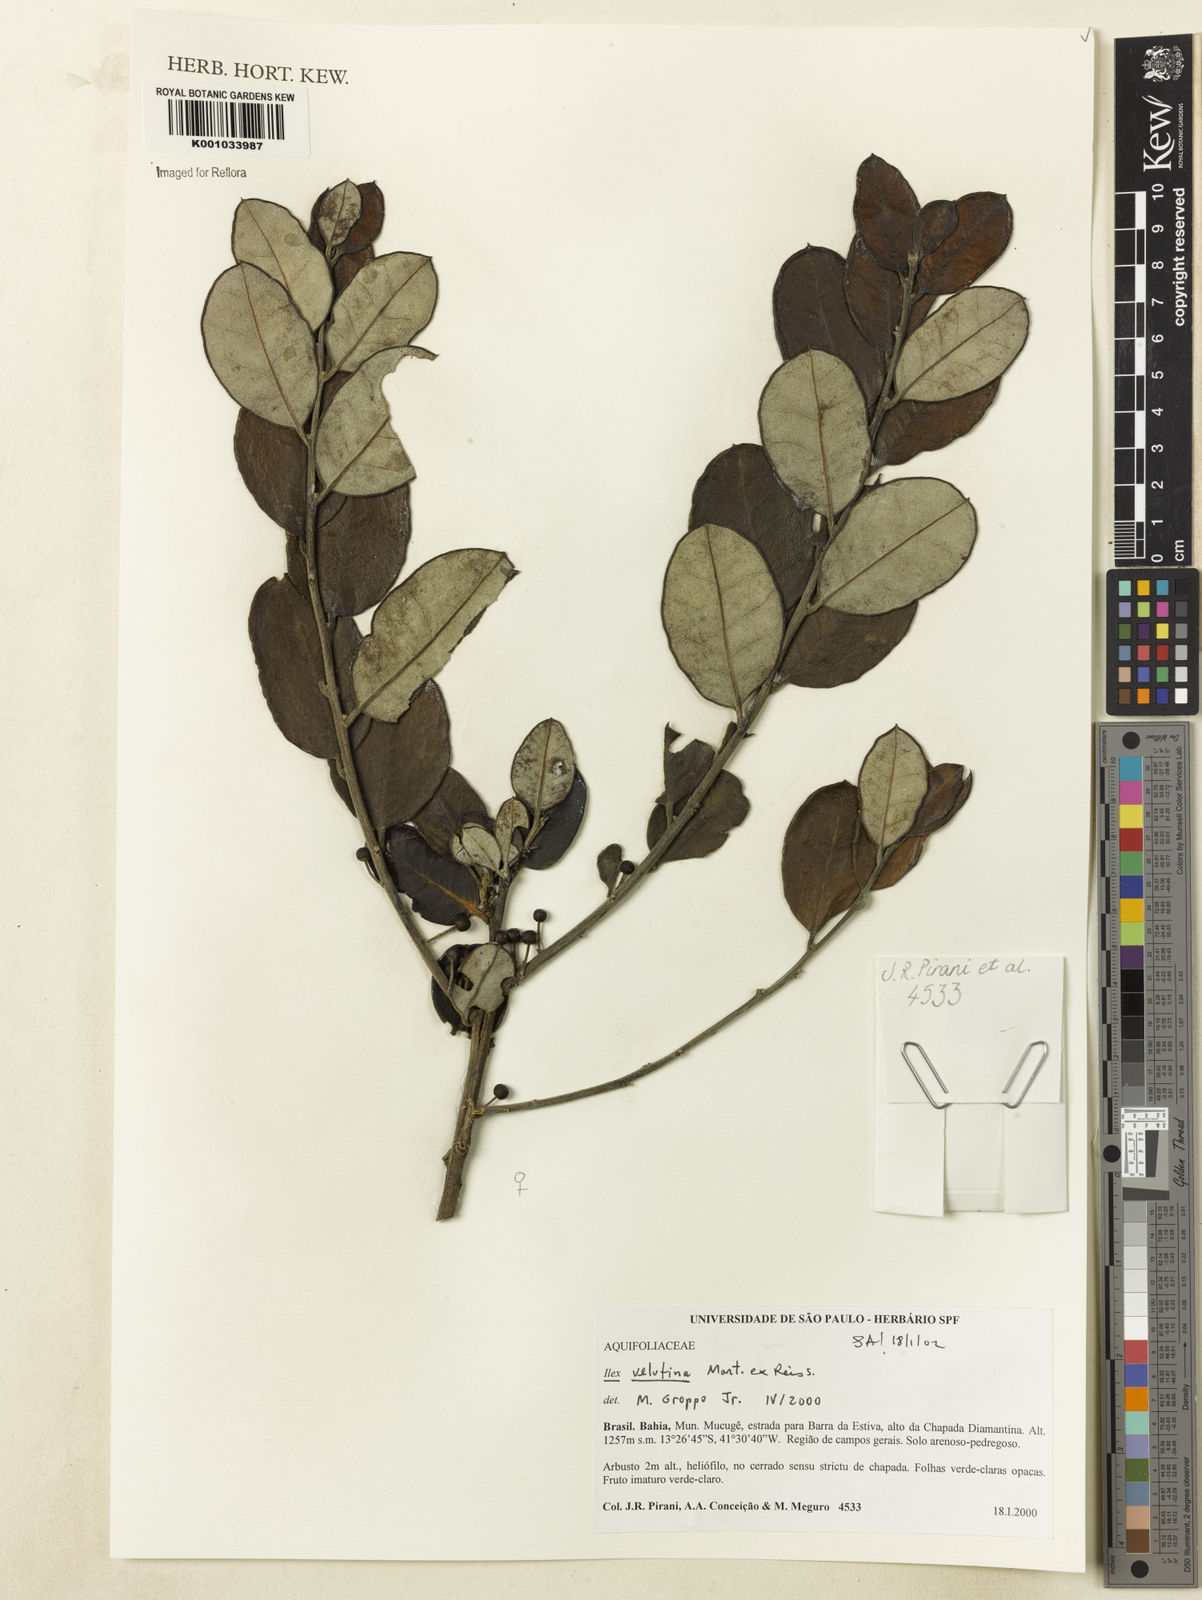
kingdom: Plantae
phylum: Tracheophyta
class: Magnoliopsida
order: Aquifoliales
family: Aquifoliaceae
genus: Ilex
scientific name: Ilex velutina
